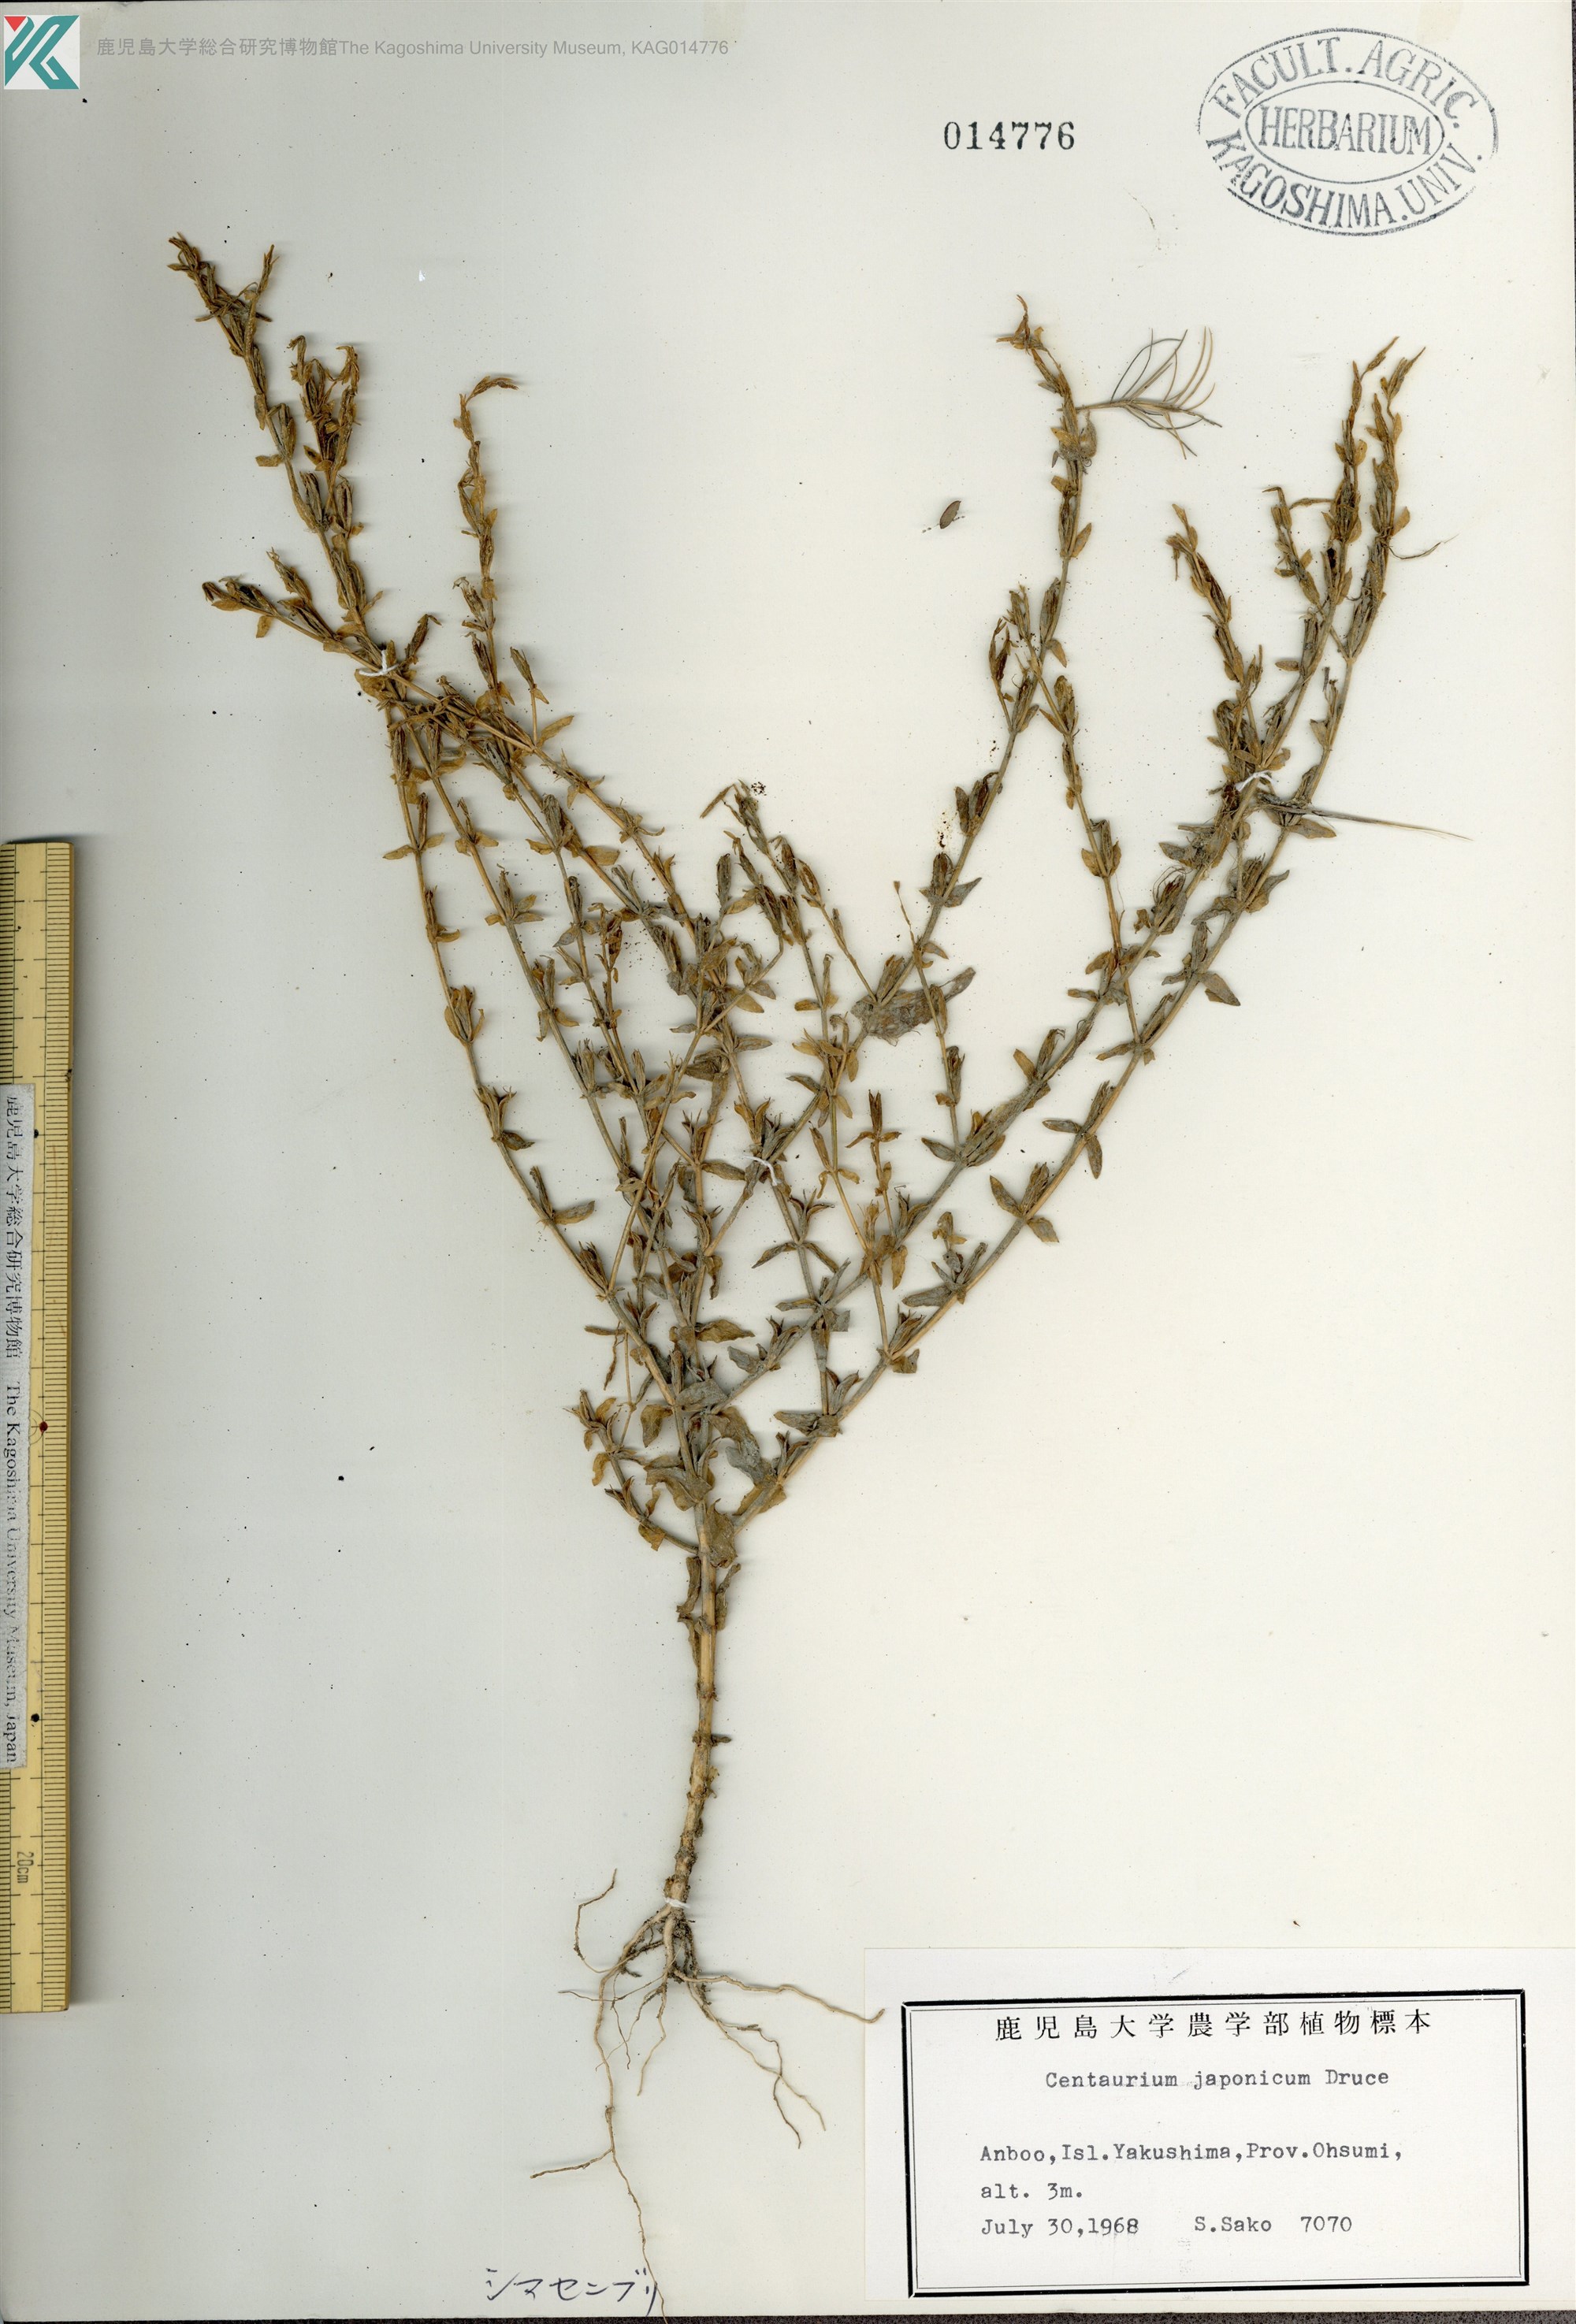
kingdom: Plantae
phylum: Tracheophyta
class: Magnoliopsida
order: Gentianales
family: Gentianaceae
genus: Schenkia
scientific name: Schenkia japonica
